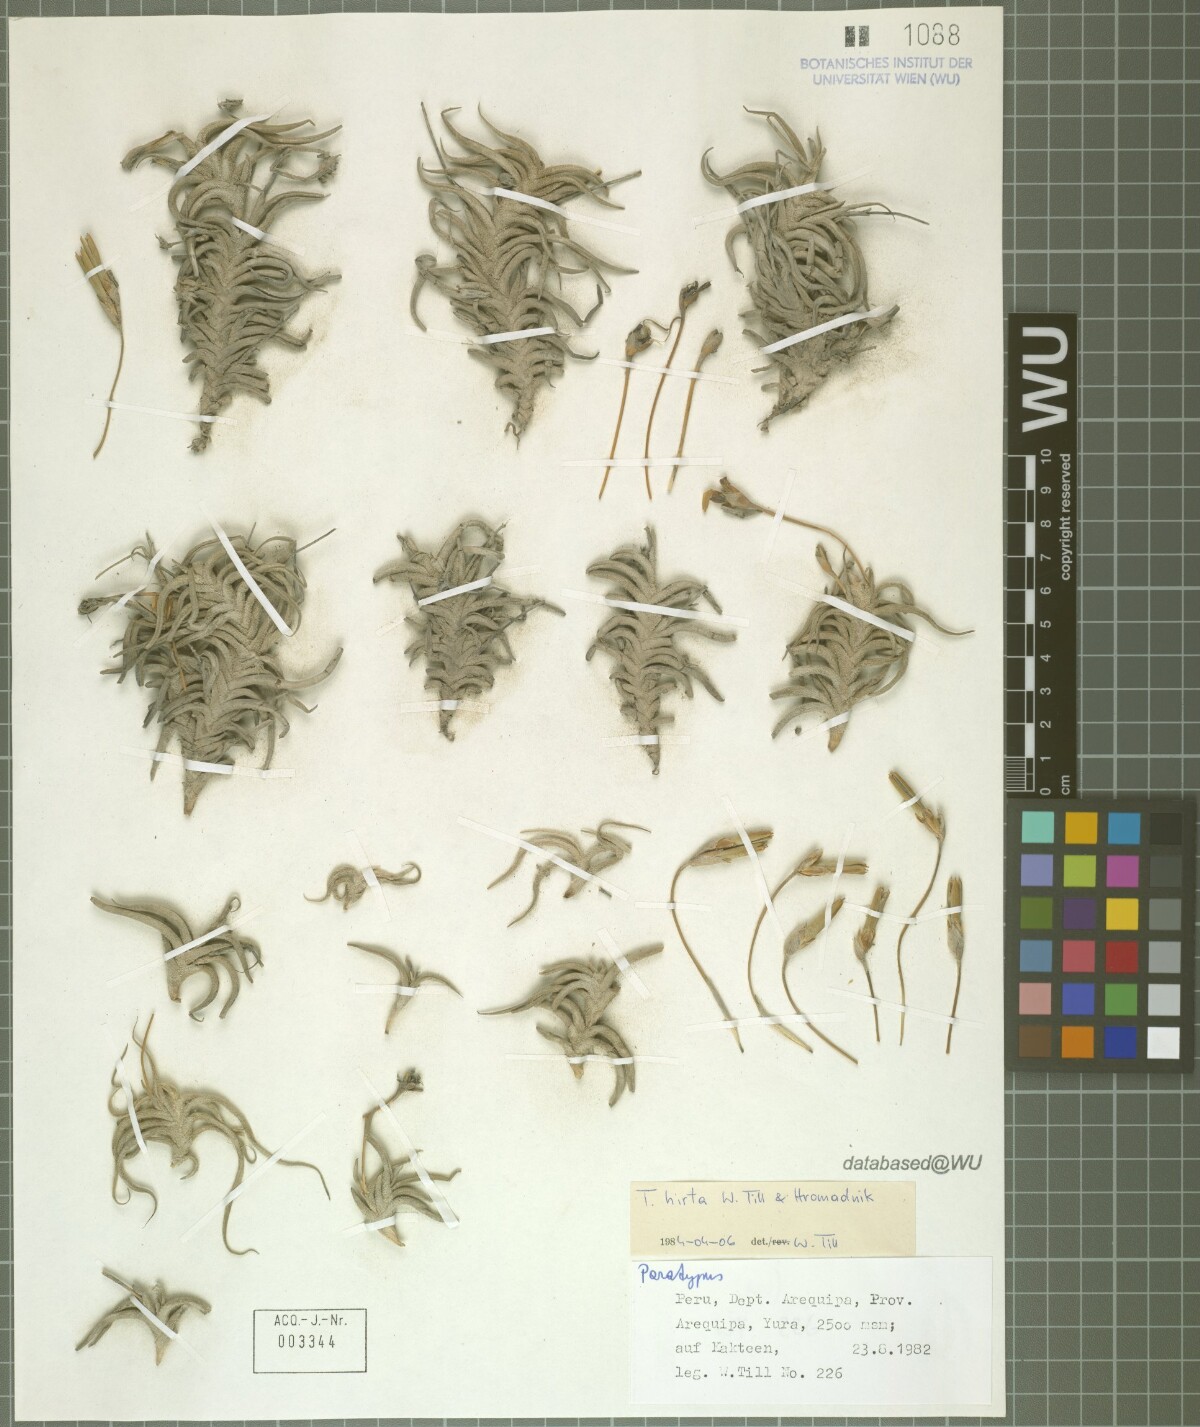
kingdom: Plantae
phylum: Tracheophyta
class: Liliopsida
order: Poales
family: Bromeliaceae
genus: Tillandsia
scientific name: Tillandsia hirta
